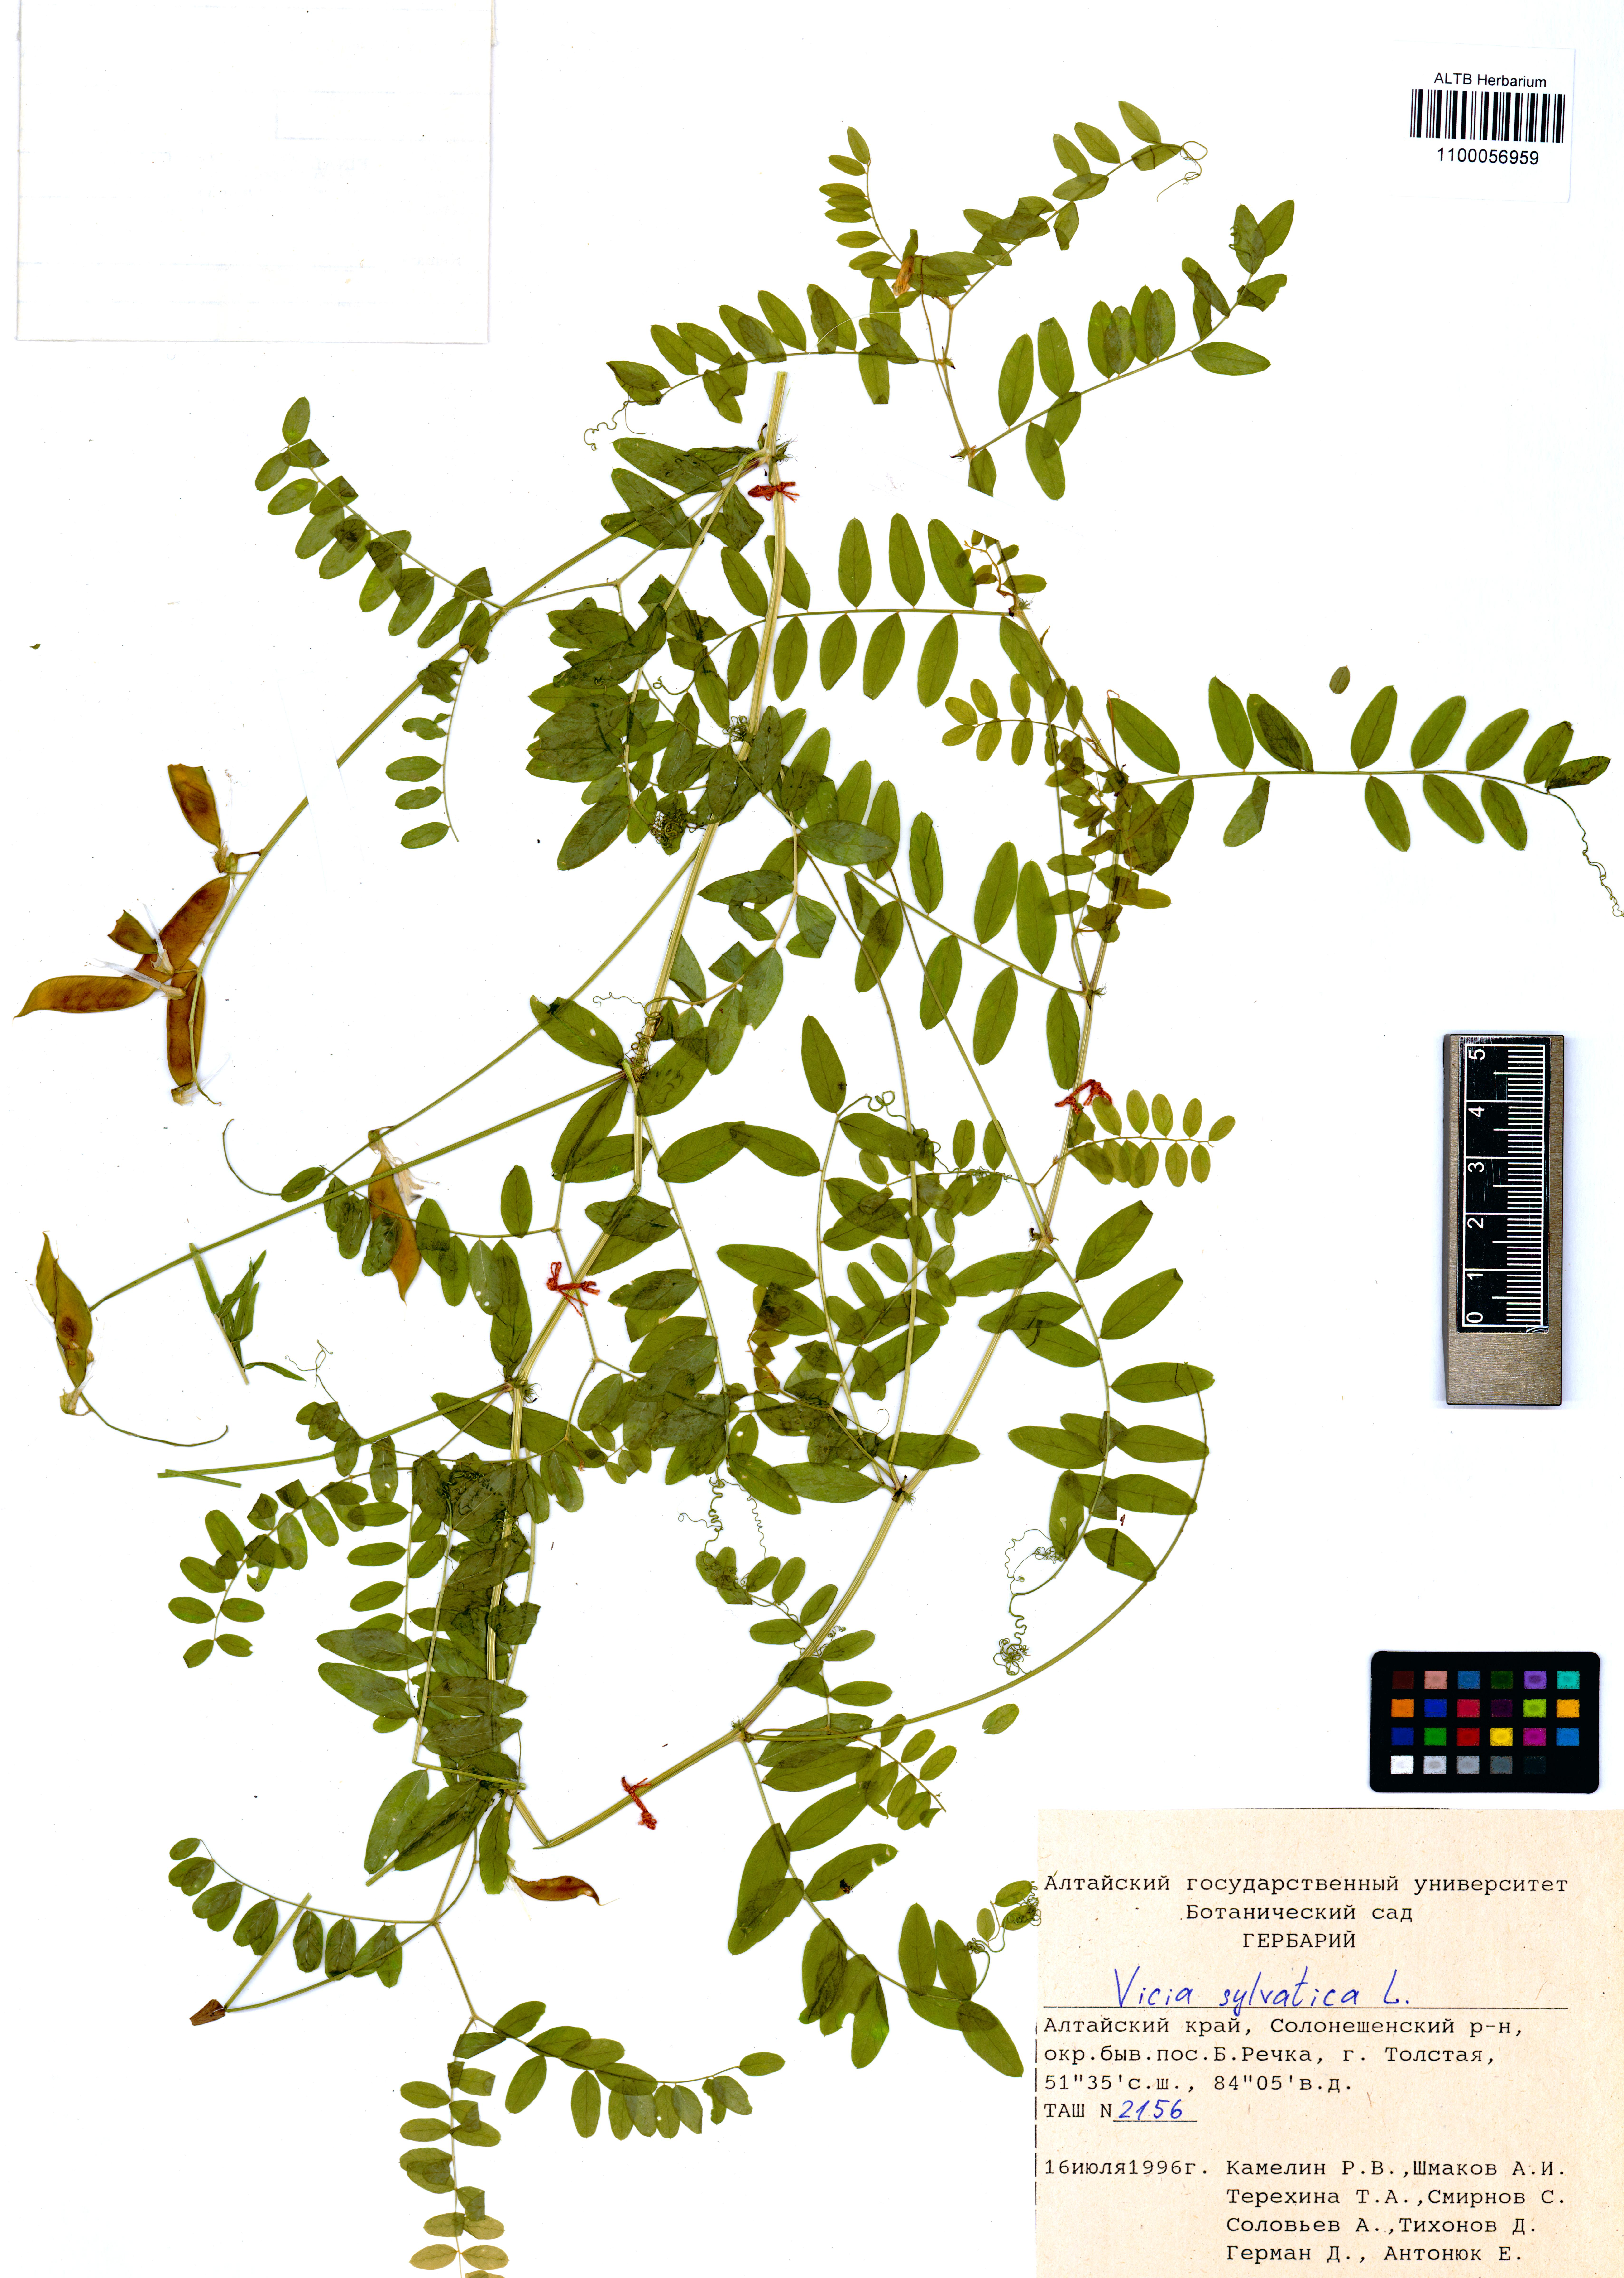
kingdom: Plantae
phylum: Tracheophyta
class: Magnoliopsida
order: Fabales
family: Fabaceae
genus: Vicia
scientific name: Vicia sylvatica
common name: Wood vetch
